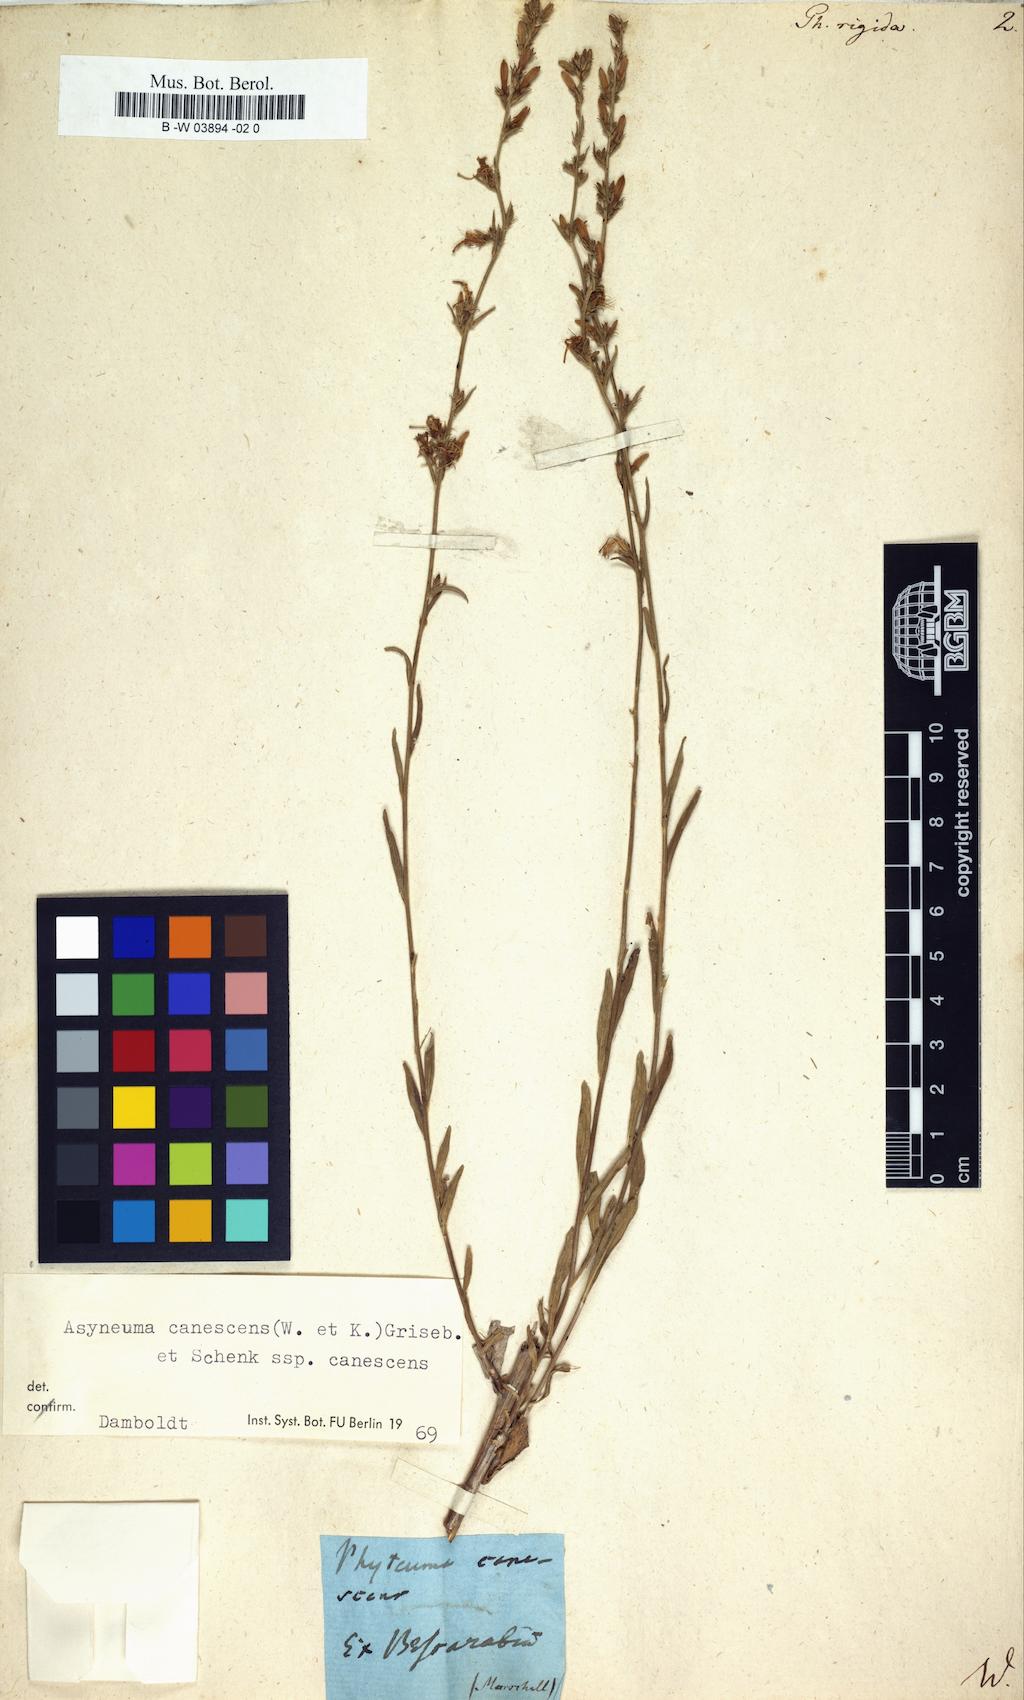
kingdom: Plantae
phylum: Tracheophyta
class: Magnoliopsida
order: Asterales
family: Campanulaceae
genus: Asyneuma
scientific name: Asyneuma rigidum
